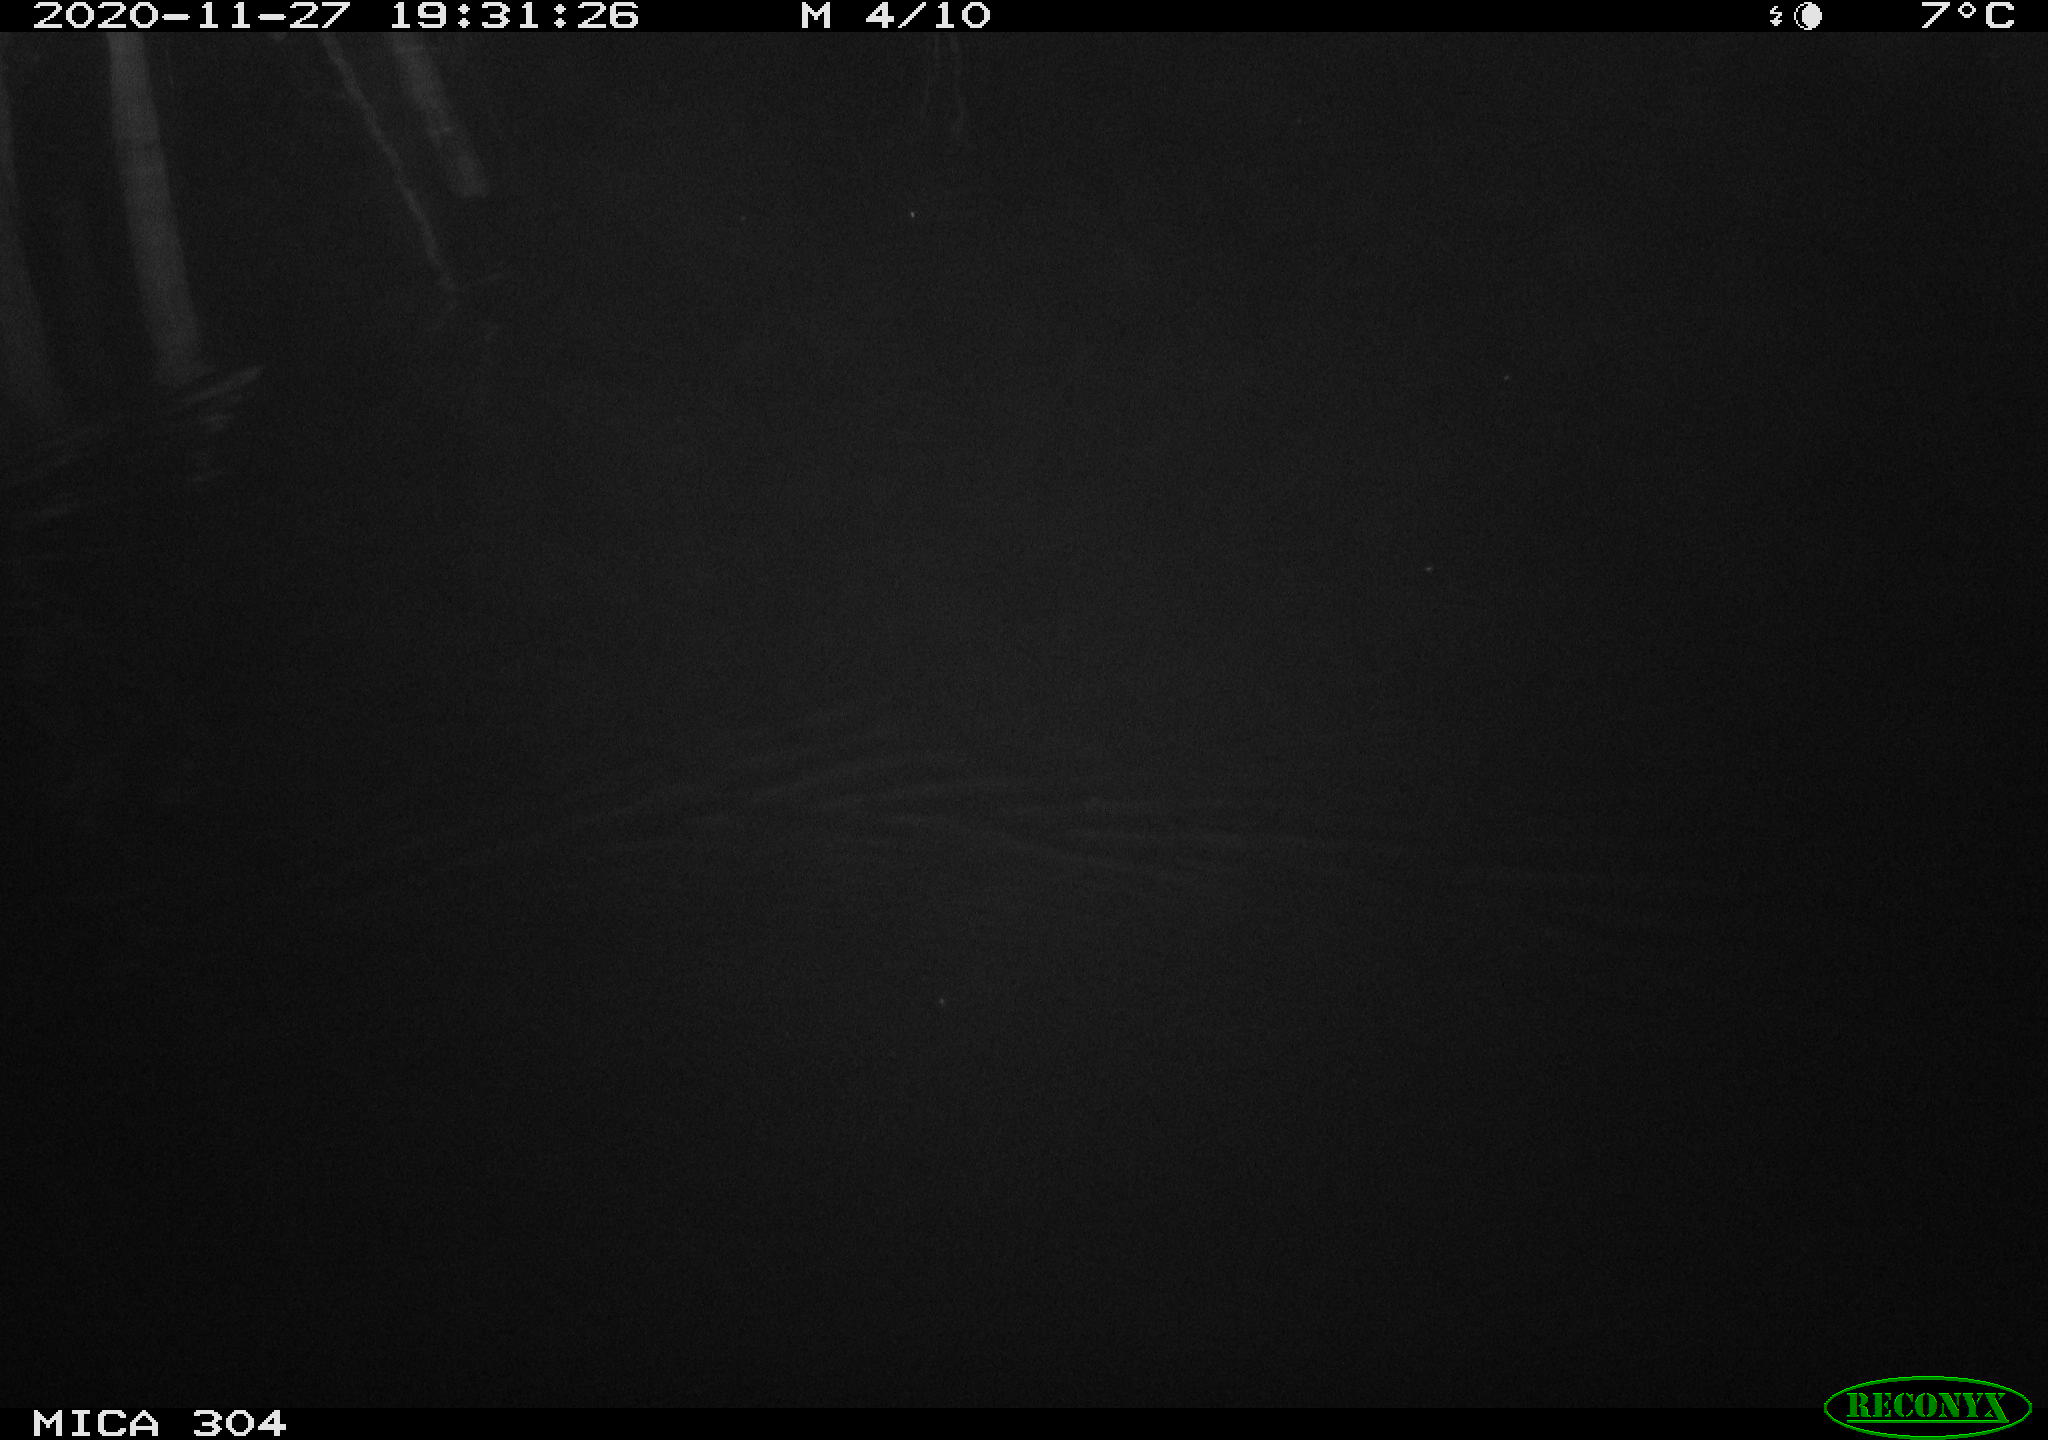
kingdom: Animalia
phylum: Chordata
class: Mammalia
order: Rodentia
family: Muridae
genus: Rattus
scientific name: Rattus norvegicus
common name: Brown rat
